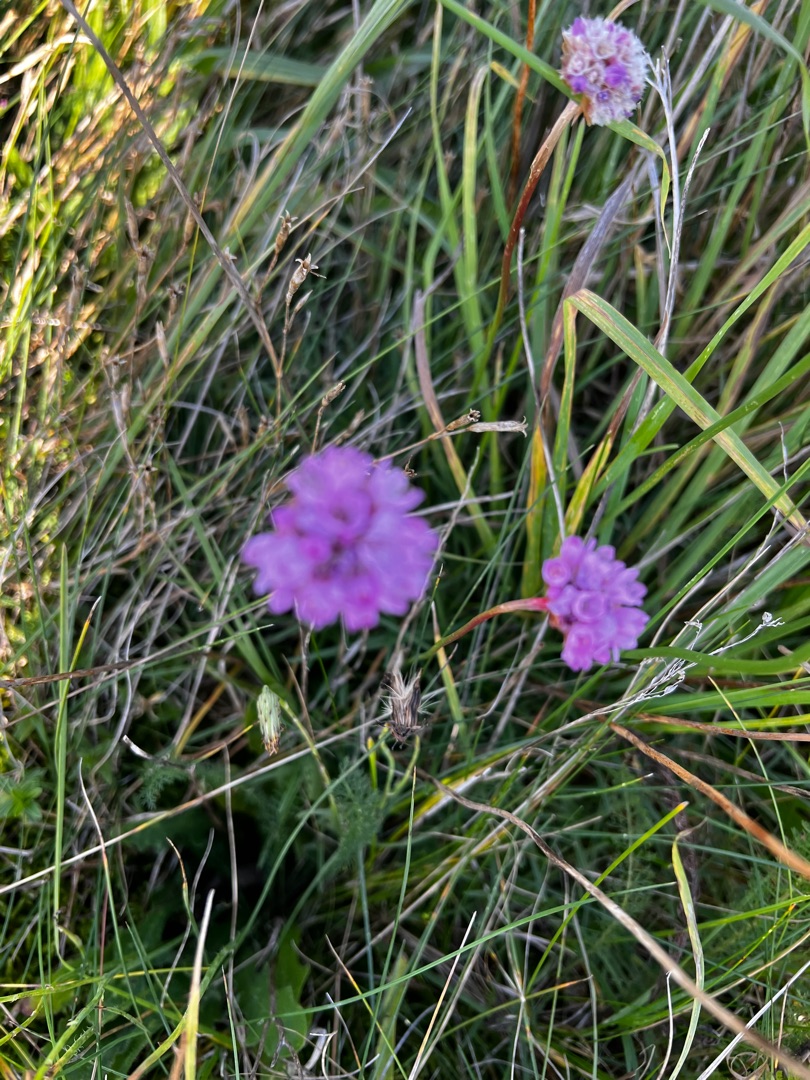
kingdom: Plantae
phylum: Tracheophyta
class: Magnoliopsida
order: Caryophyllales
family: Plumbaginaceae
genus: Armeria
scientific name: Armeria maritima
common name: Engelskgræs
